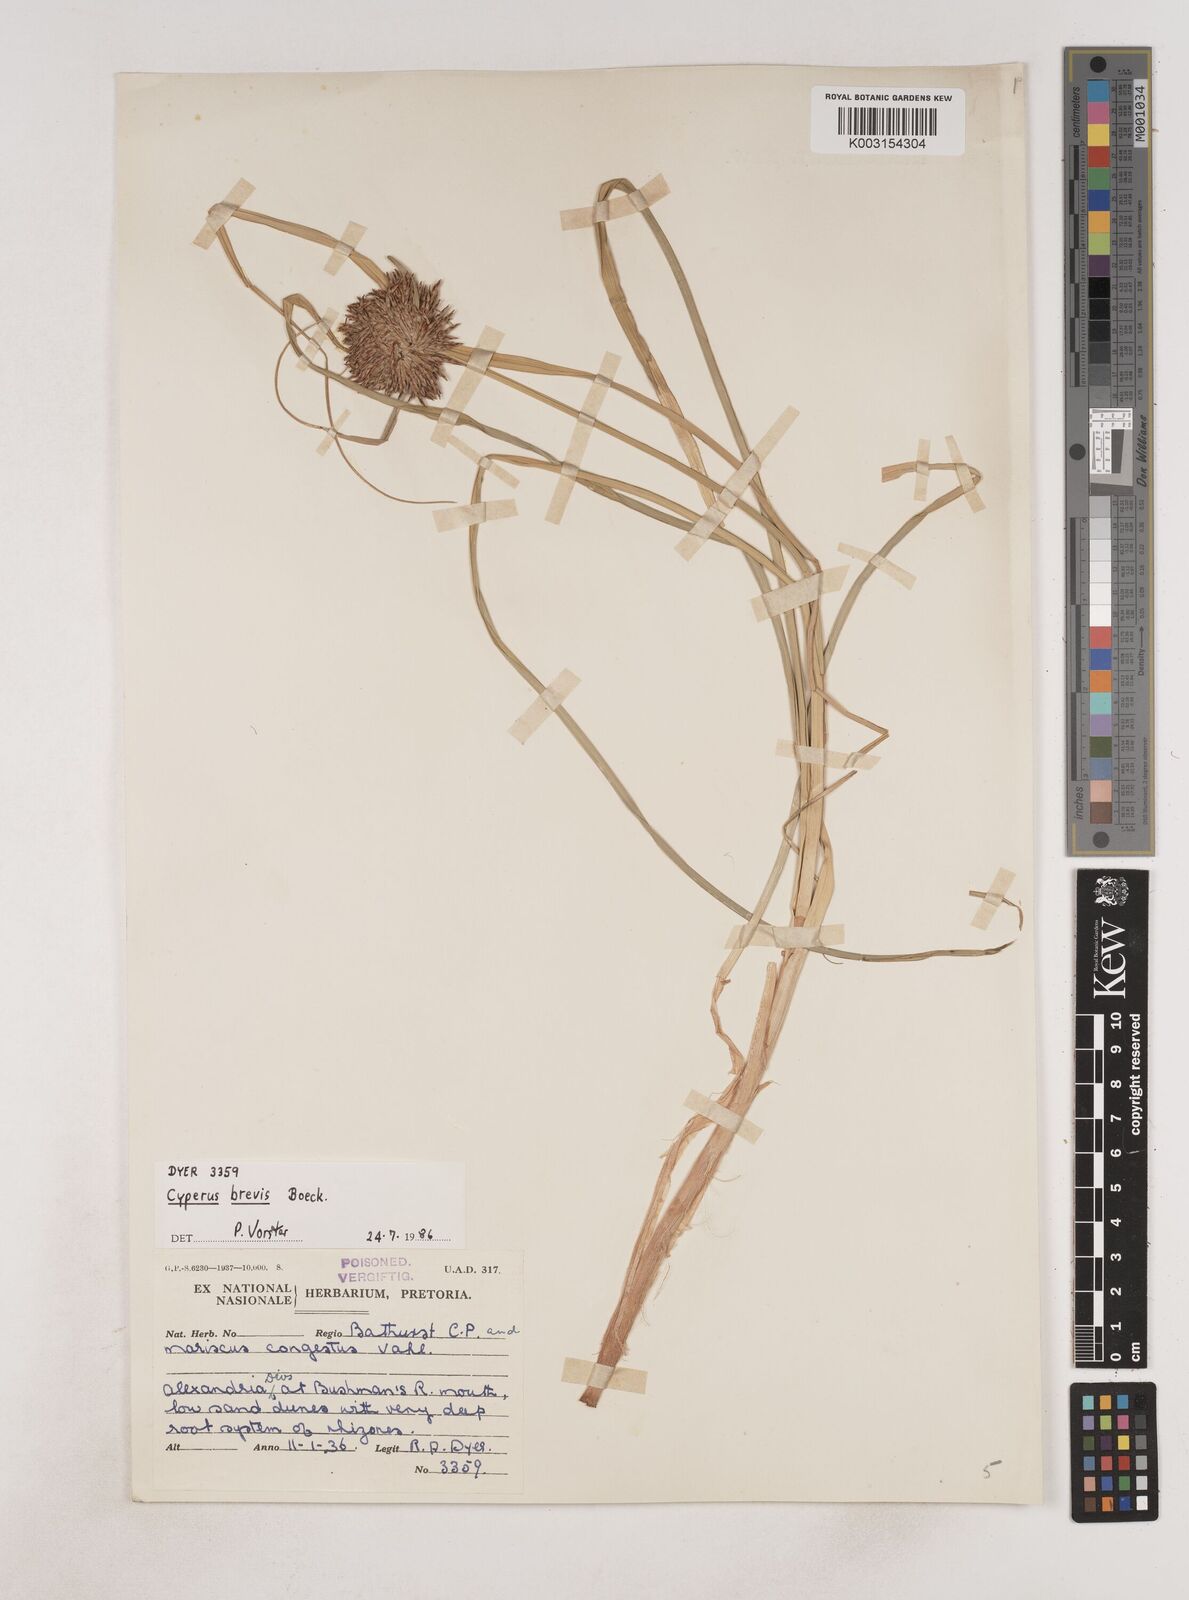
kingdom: Plantae
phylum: Tracheophyta
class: Liliopsida
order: Poales
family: Cyperaceae
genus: Cyperus
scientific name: Cyperus congestus
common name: Dense flat sedge
